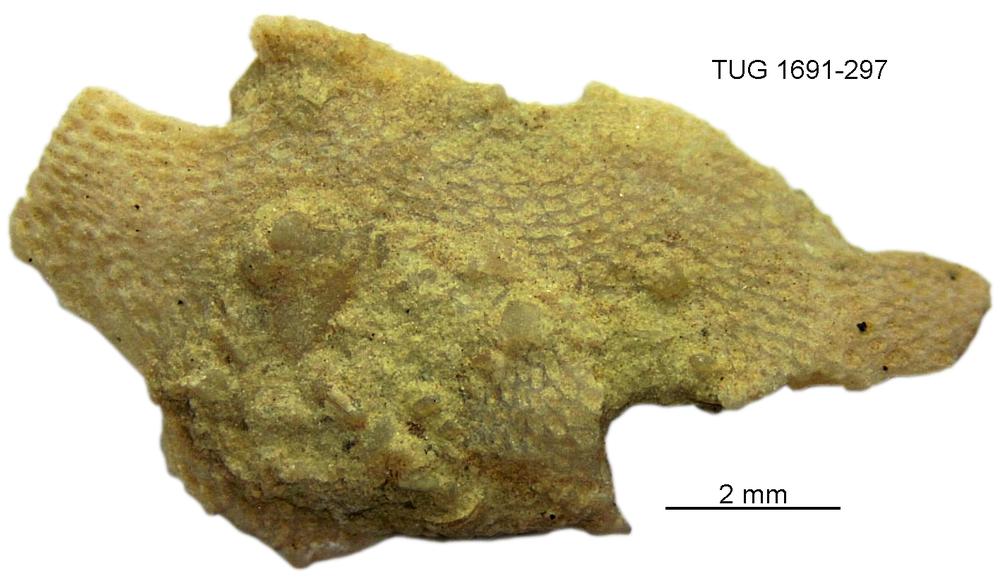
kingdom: Animalia
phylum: Bryozoa
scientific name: Bryozoa
